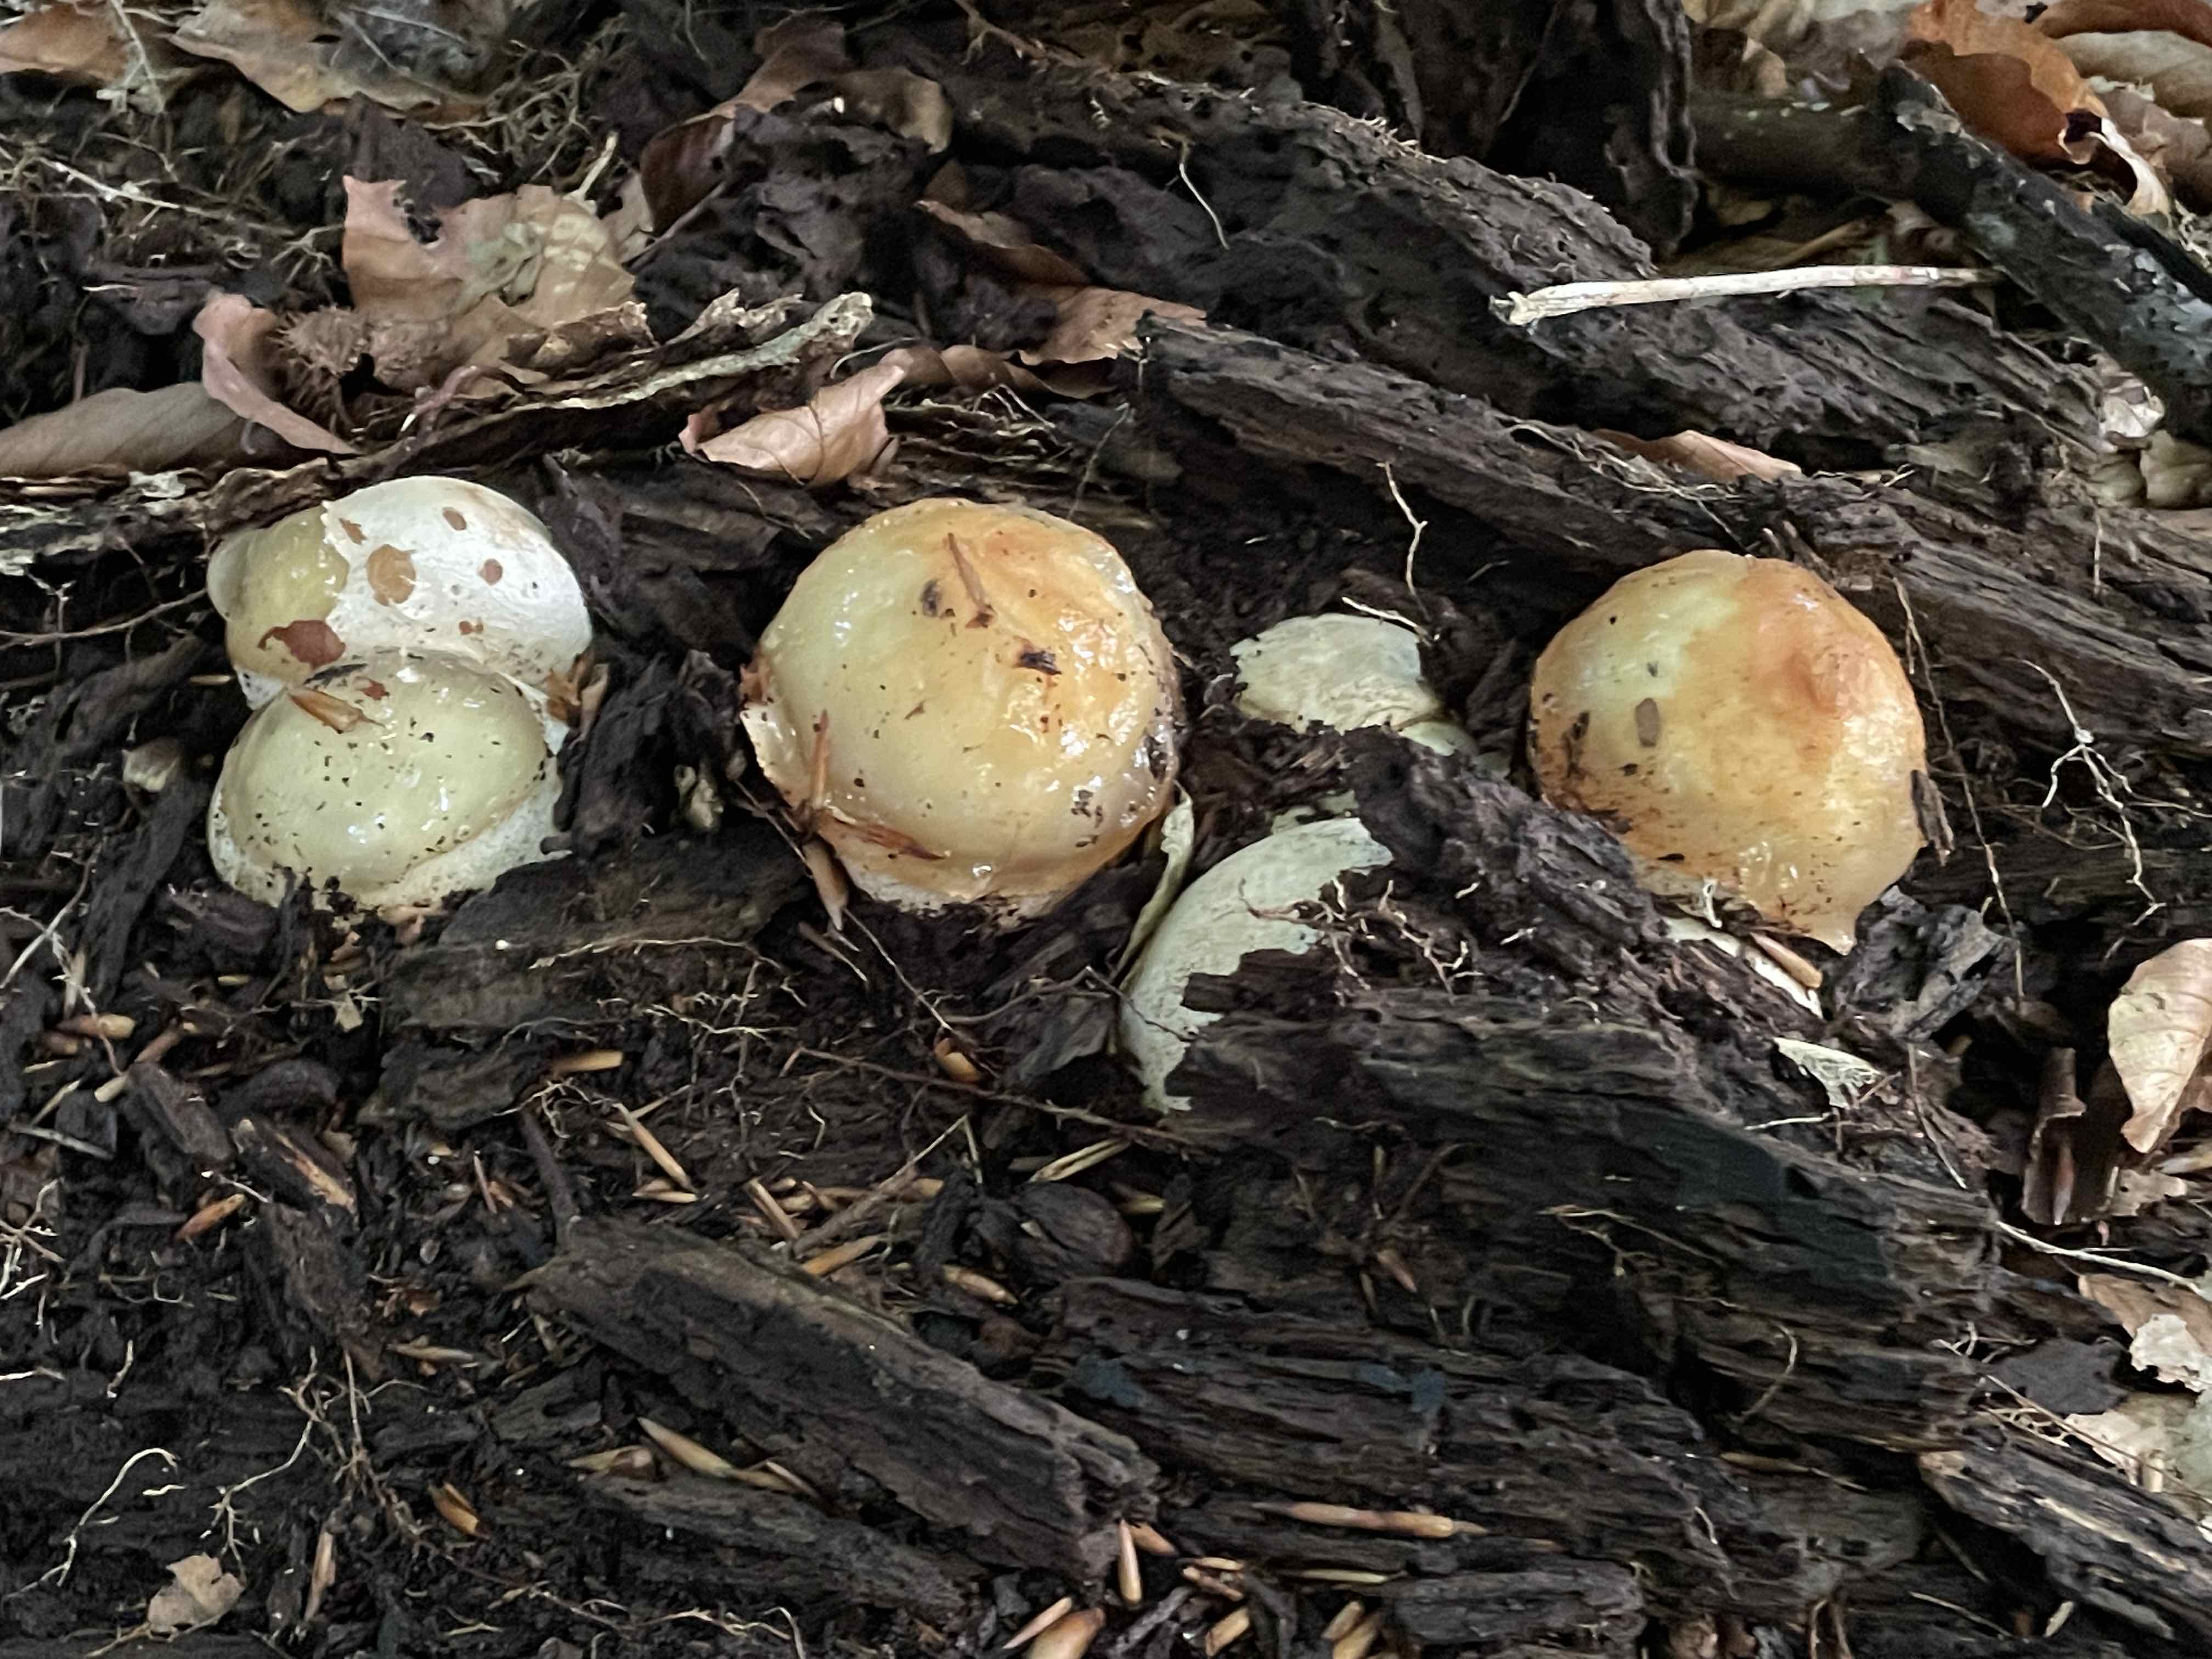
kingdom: Fungi
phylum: Basidiomycota
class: Agaricomycetes
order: Phallales
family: Phallaceae
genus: Phallus
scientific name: Phallus impudicus
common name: almindelig stinksvamp
